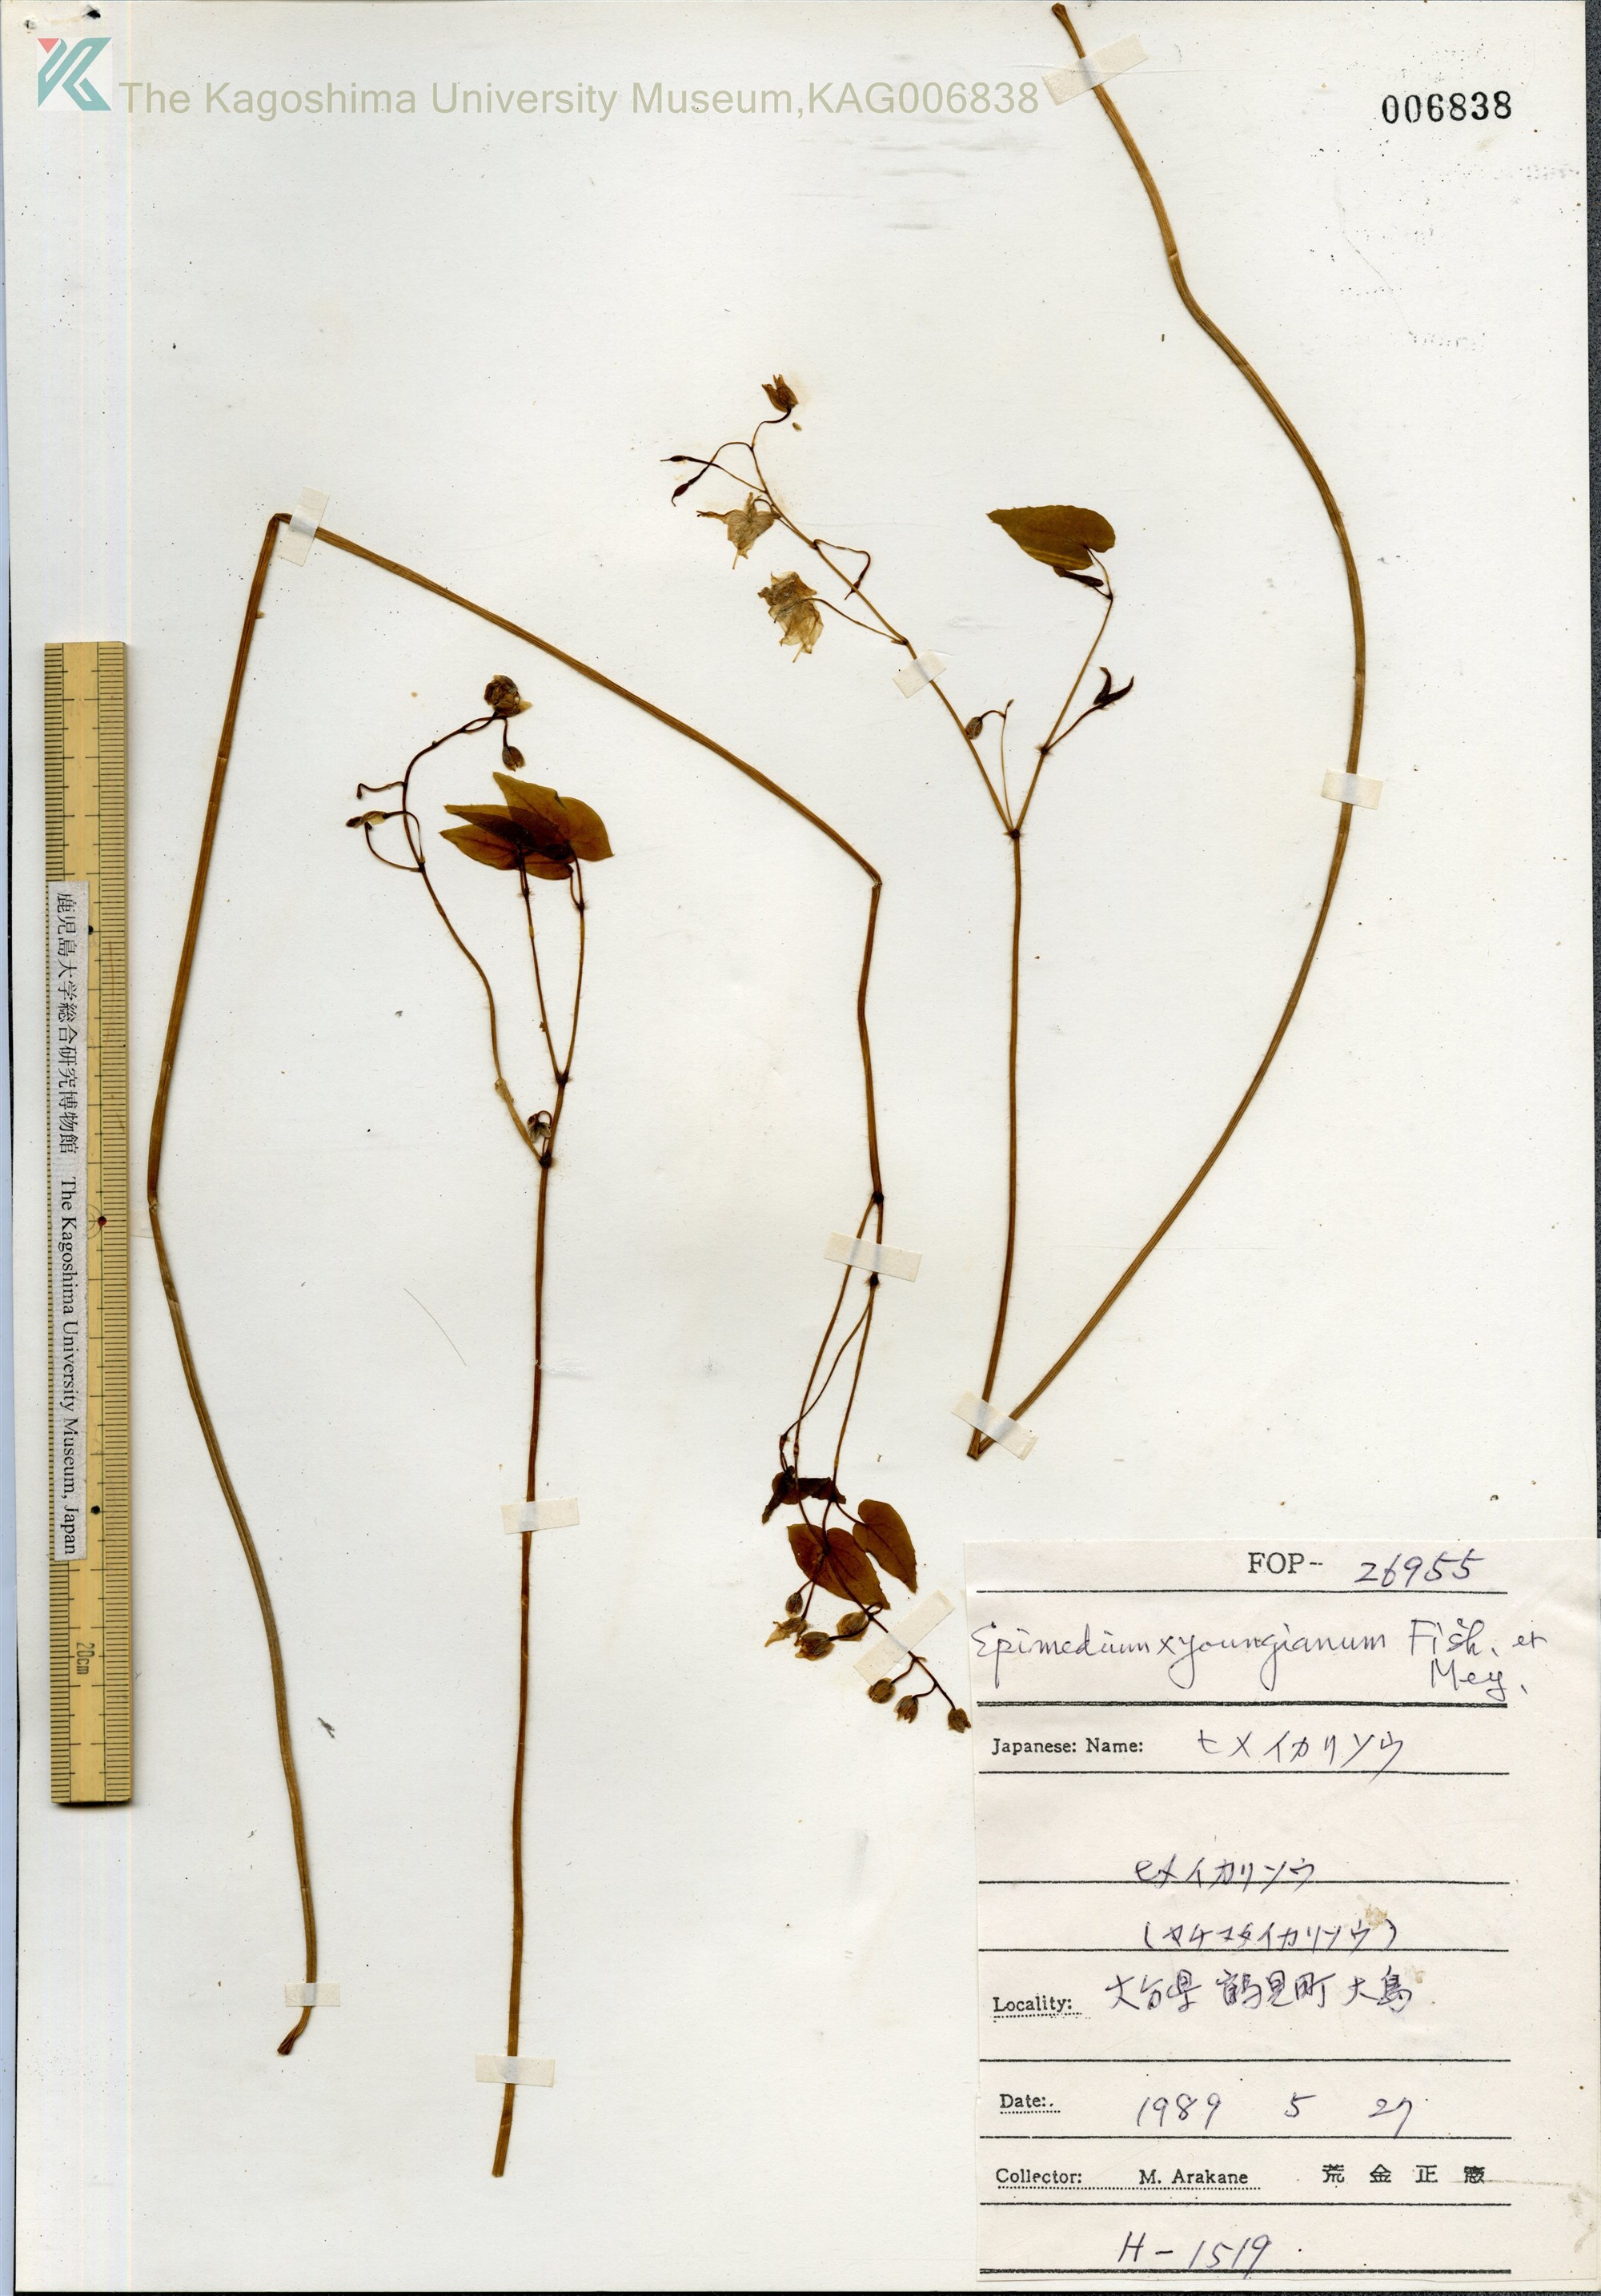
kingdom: Plantae
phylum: Tracheophyta
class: Magnoliopsida
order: Ranunculales
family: Berberidaceae
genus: Epimedium
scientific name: Epimedium youngianum
